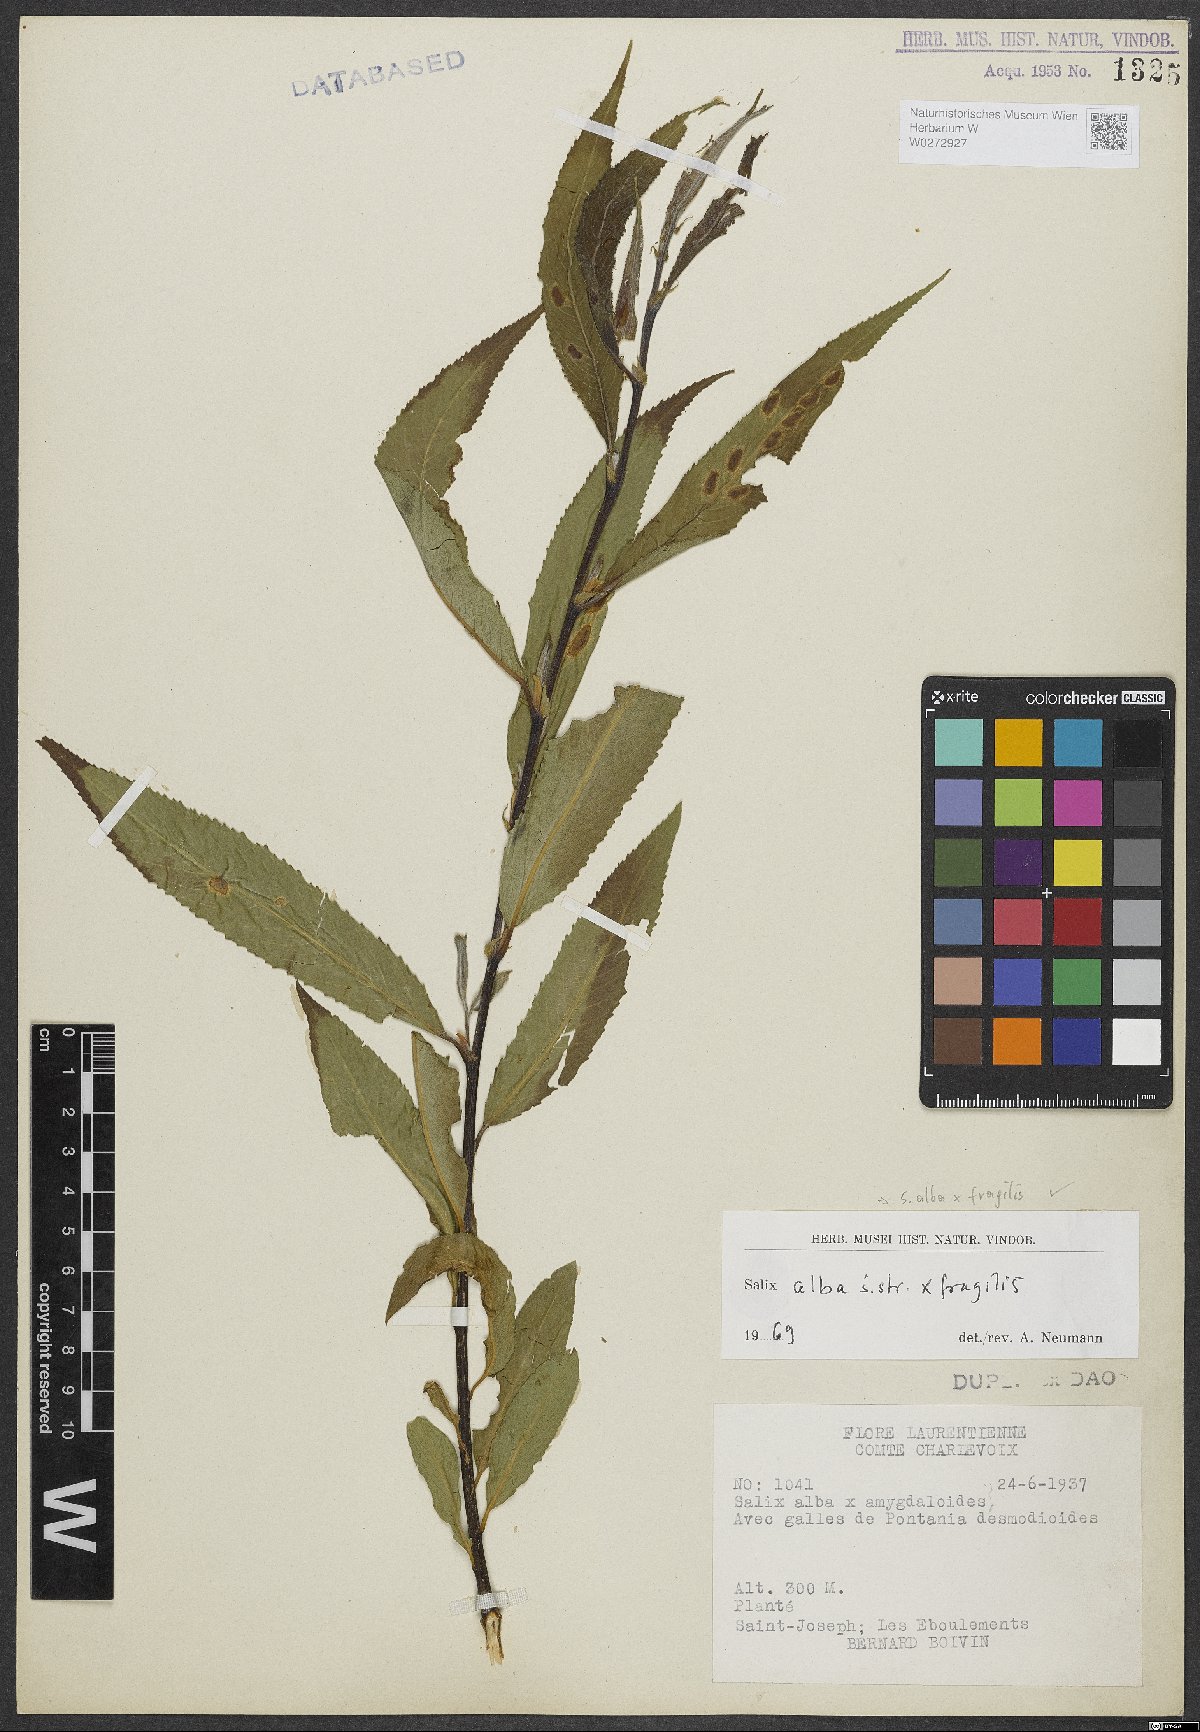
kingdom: Plantae
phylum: Tracheophyta
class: Magnoliopsida
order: Malpighiales
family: Salicaceae
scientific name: Salicaceae
